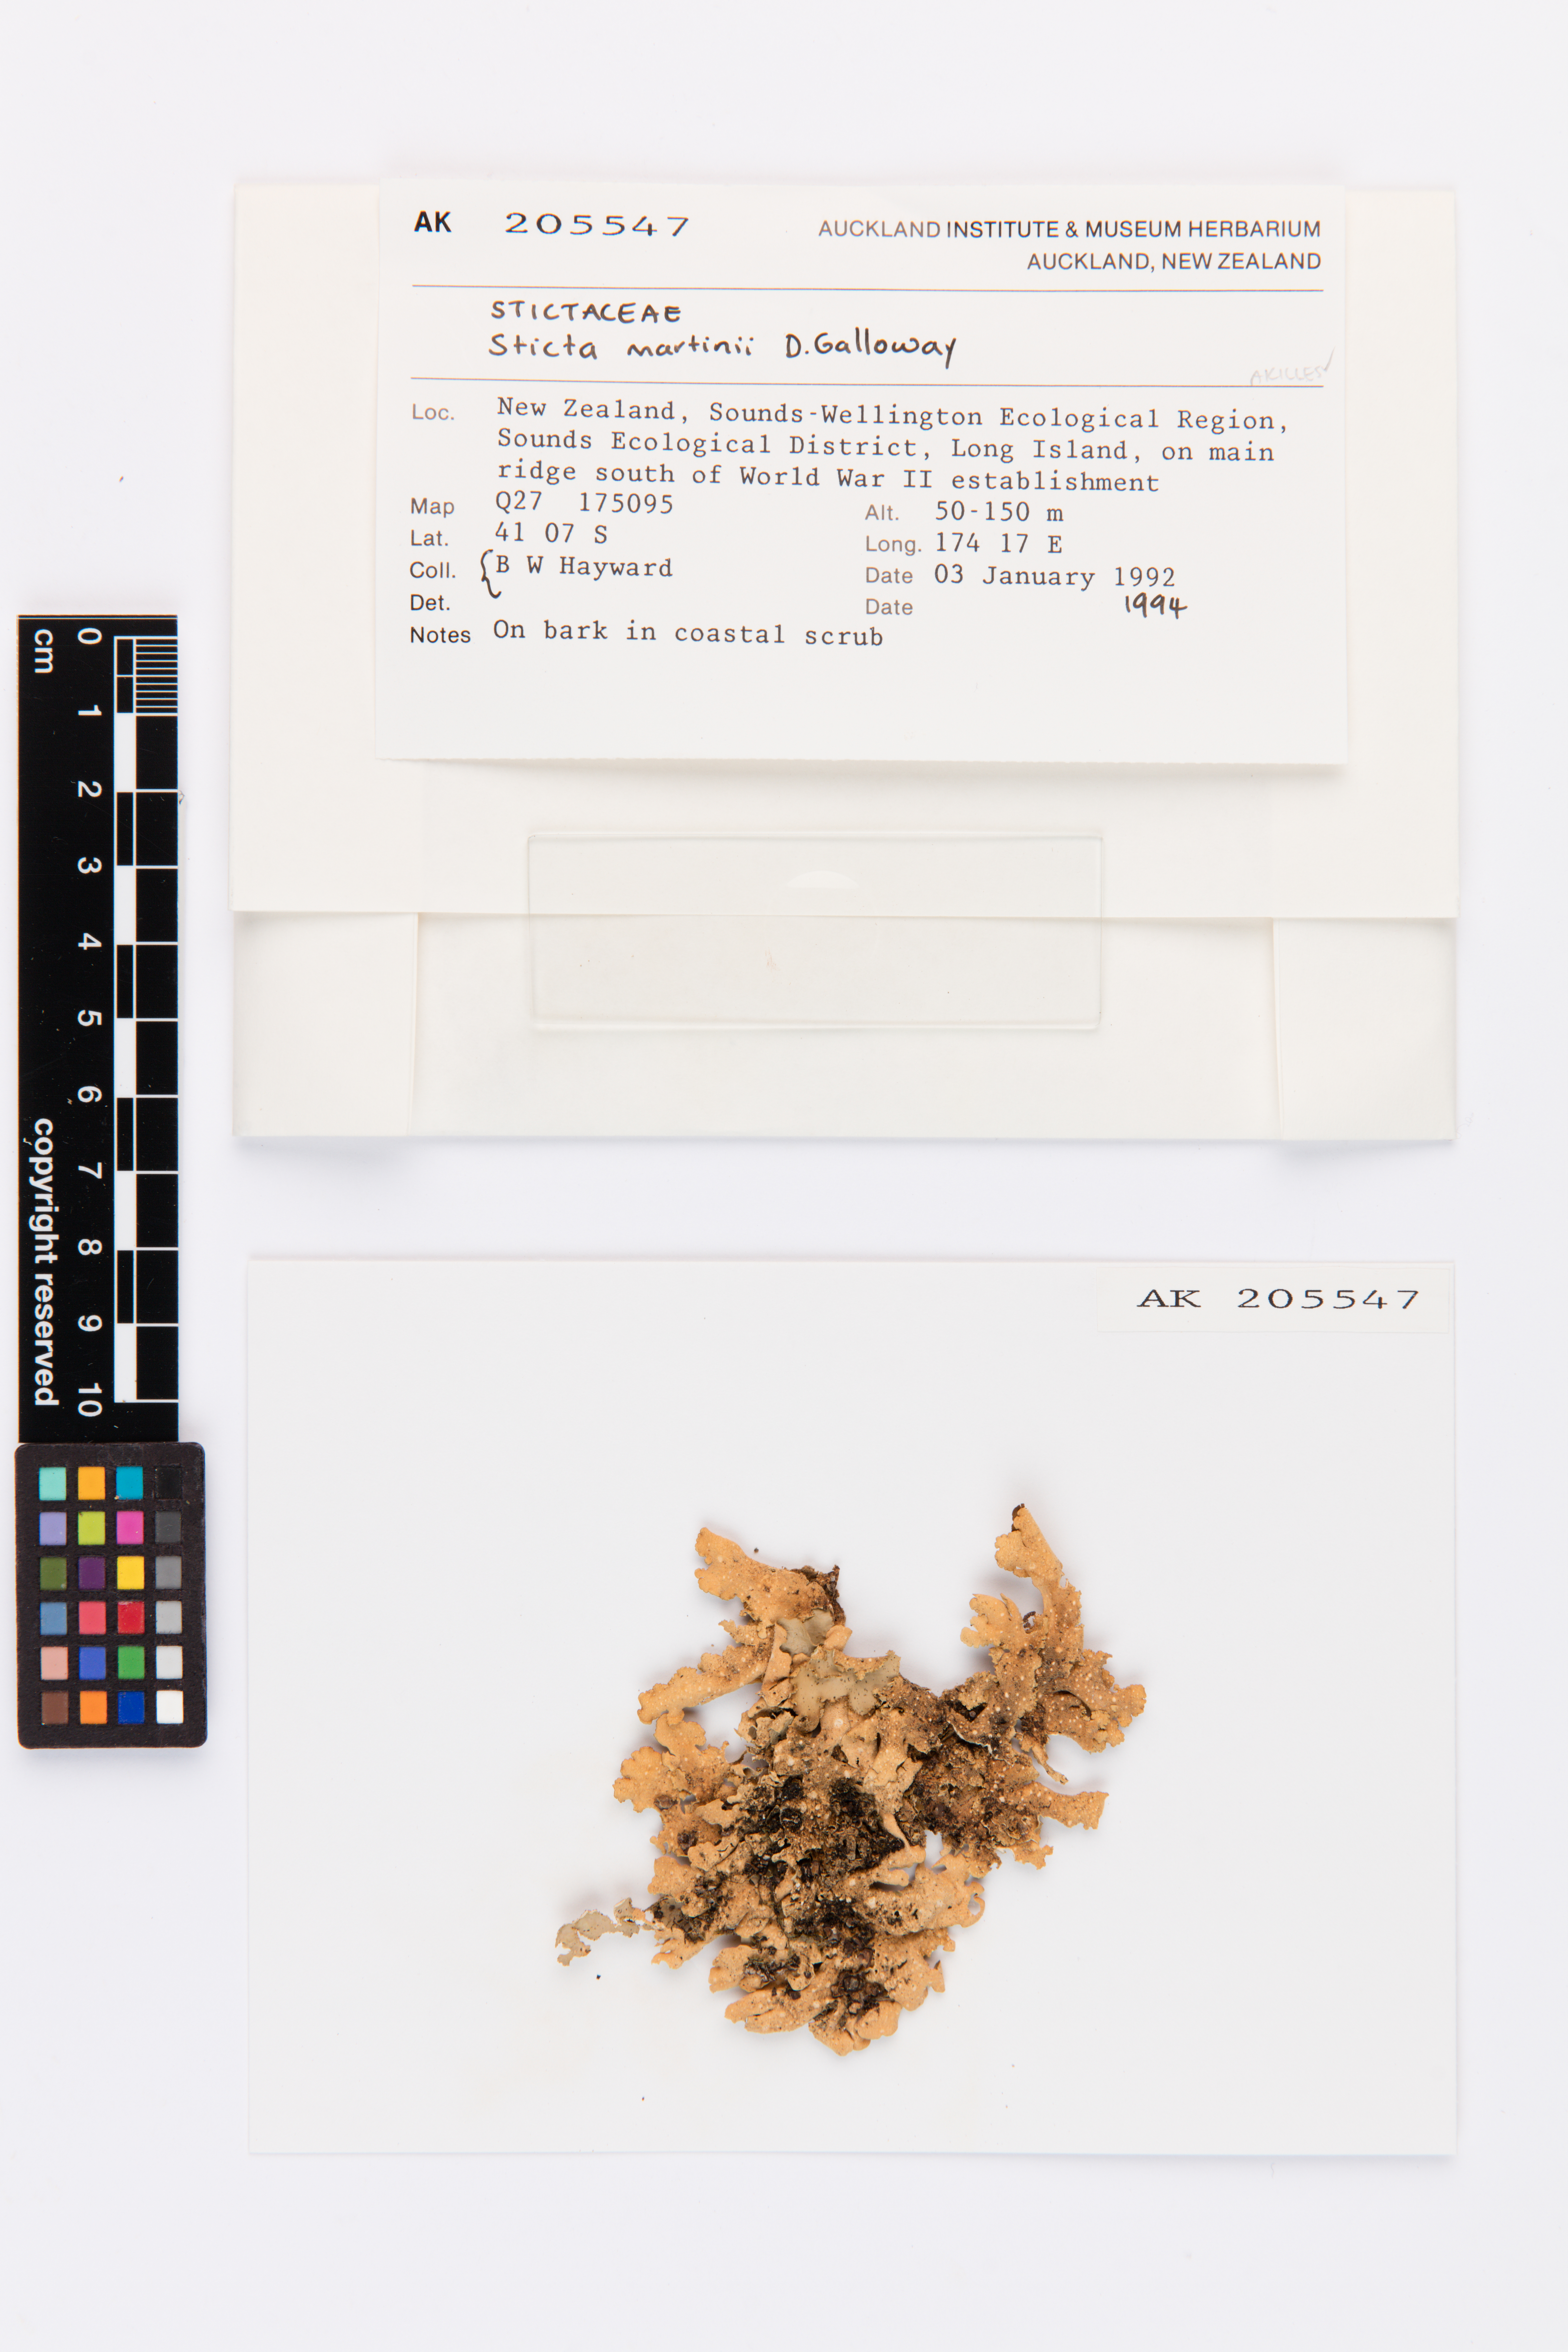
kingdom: Fungi
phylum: Ascomycota
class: Lecanoromycetes
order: Peltigerales
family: Lobariaceae
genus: Sticta
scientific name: Sticta martinii
